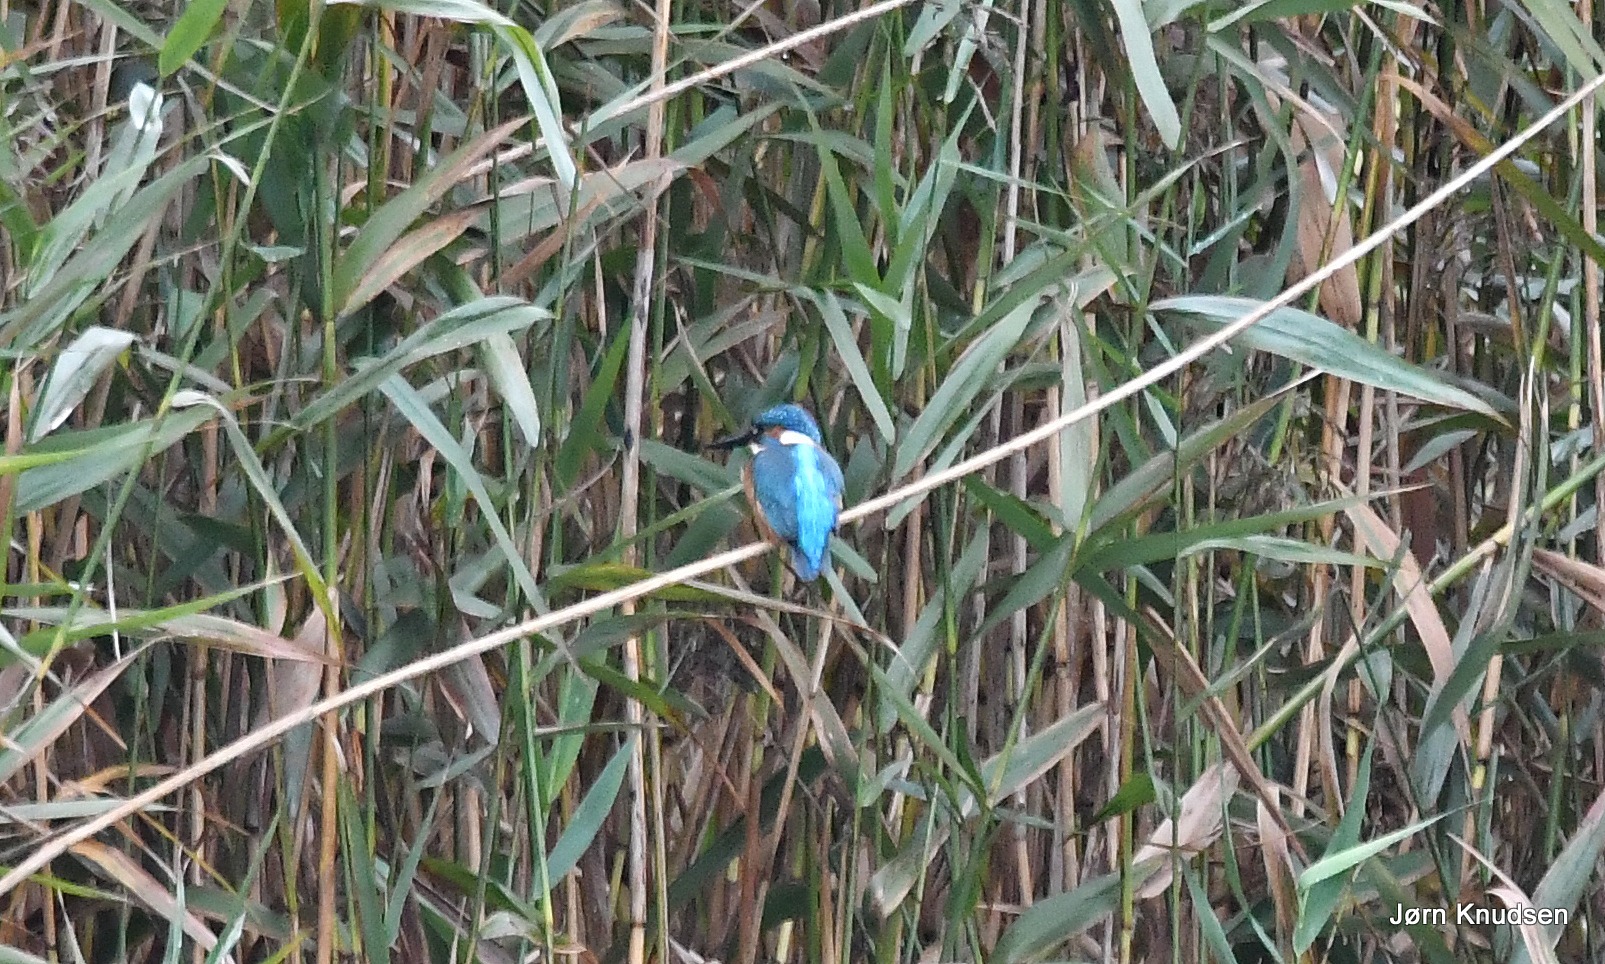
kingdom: Animalia
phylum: Chordata
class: Aves
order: Coraciiformes
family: Alcedinidae
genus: Alcedo
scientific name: Alcedo atthis
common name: Isfugl
